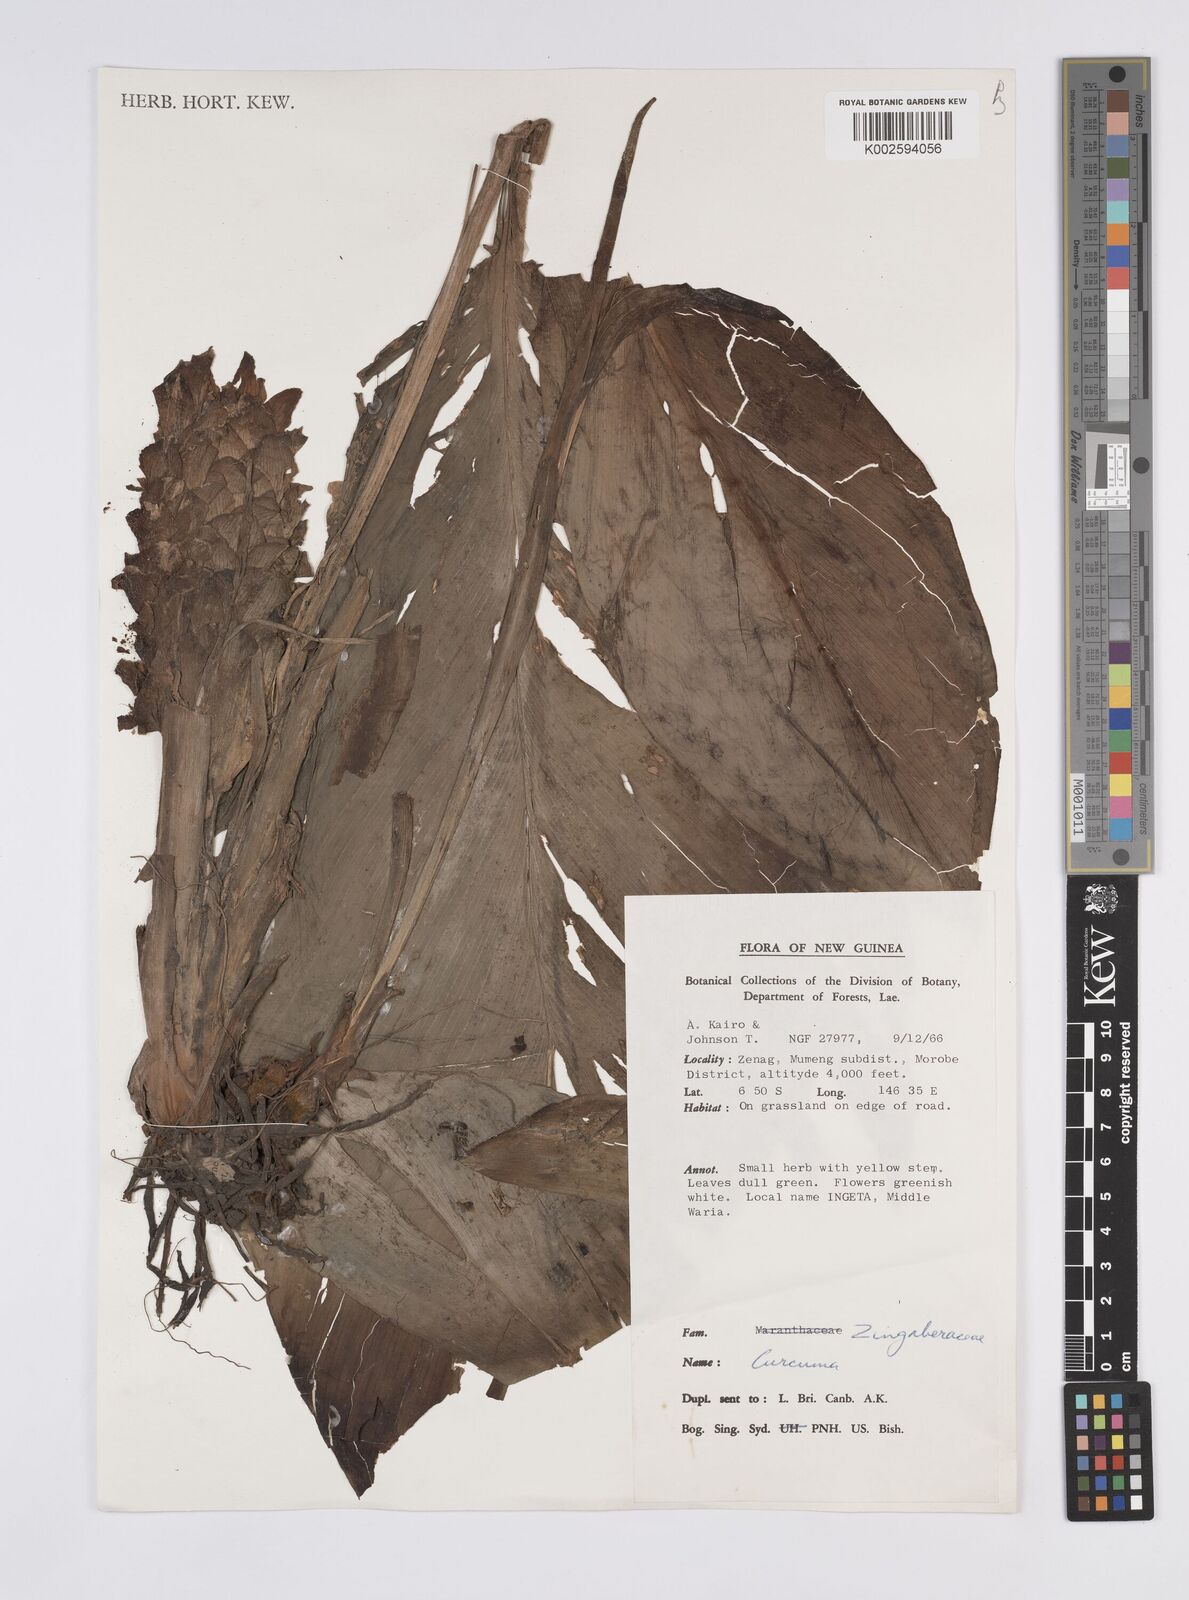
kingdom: Plantae
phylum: Tracheophyta
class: Liliopsida
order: Zingiberales
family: Zingiberaceae
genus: Curcuma
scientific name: Curcuma
